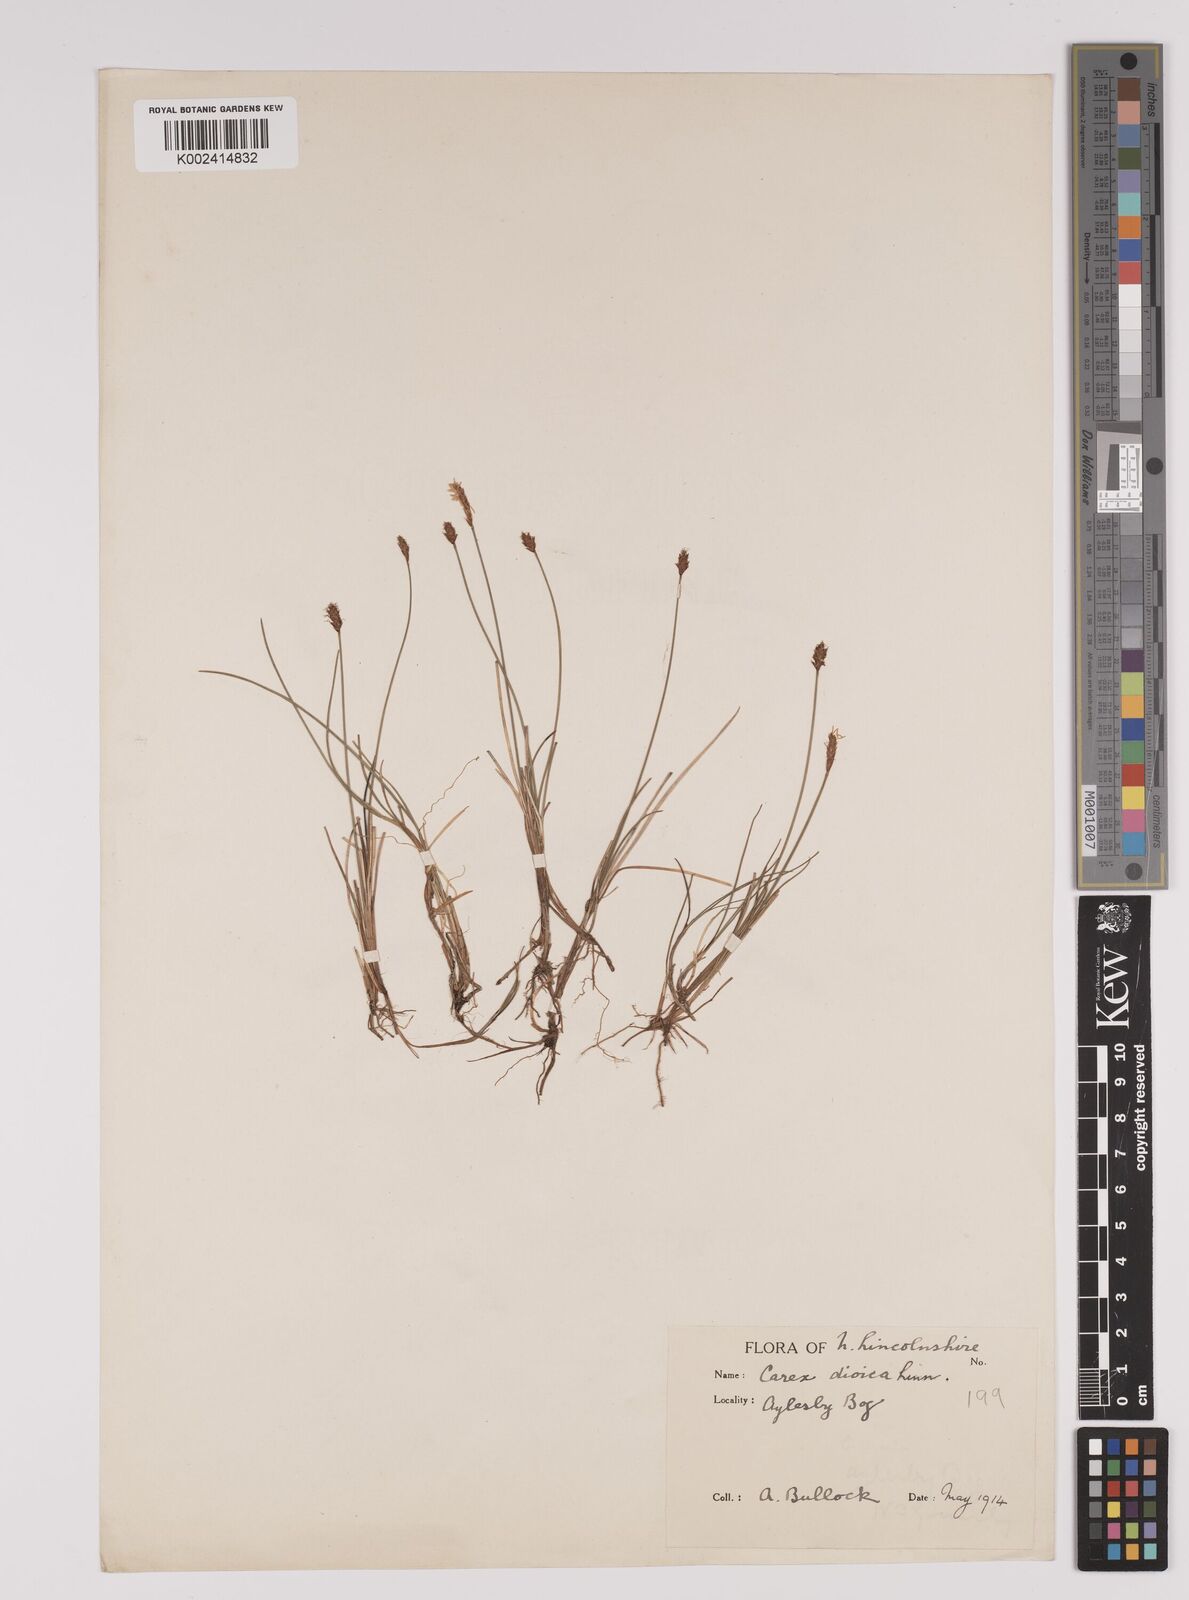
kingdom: Plantae
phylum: Tracheophyta
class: Liliopsida
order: Poales
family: Cyperaceae
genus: Carex
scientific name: Carex dioica
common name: Dioecious sedge
